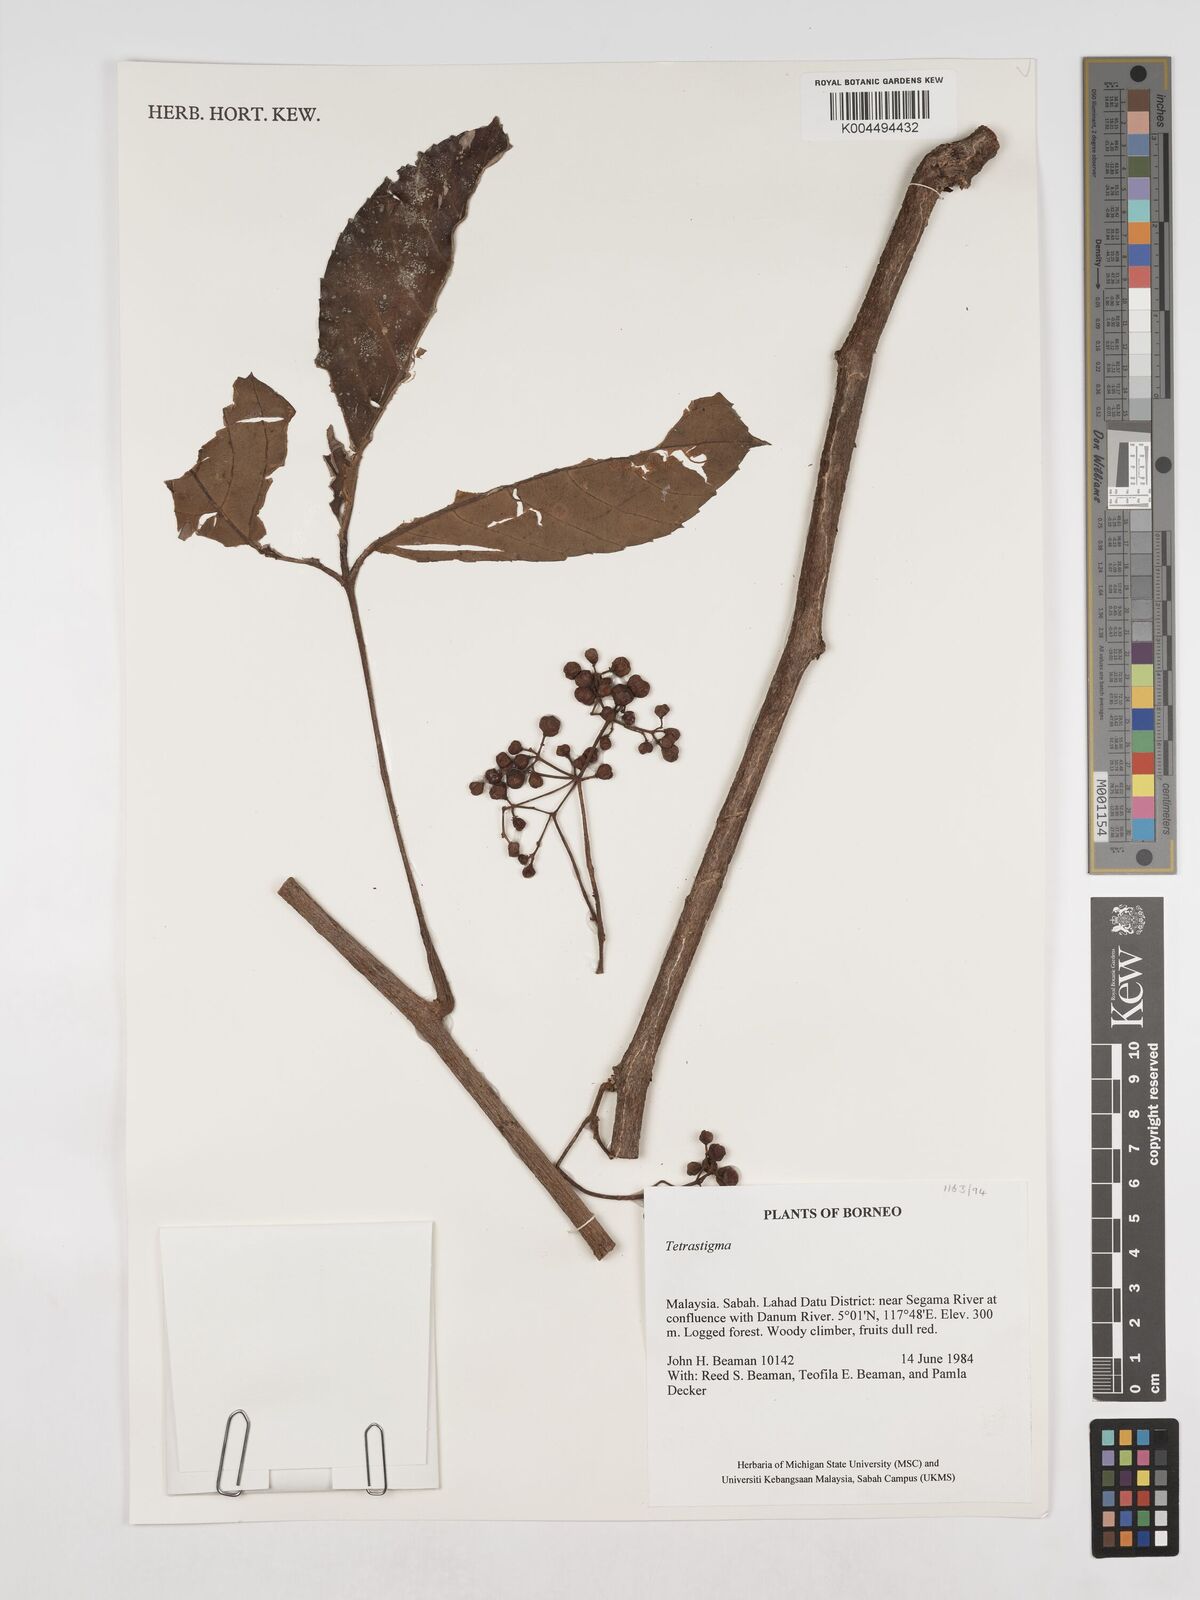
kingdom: Plantae
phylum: Tracheophyta
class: Magnoliopsida
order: Vitales
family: Vitaceae
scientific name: Vitaceae
